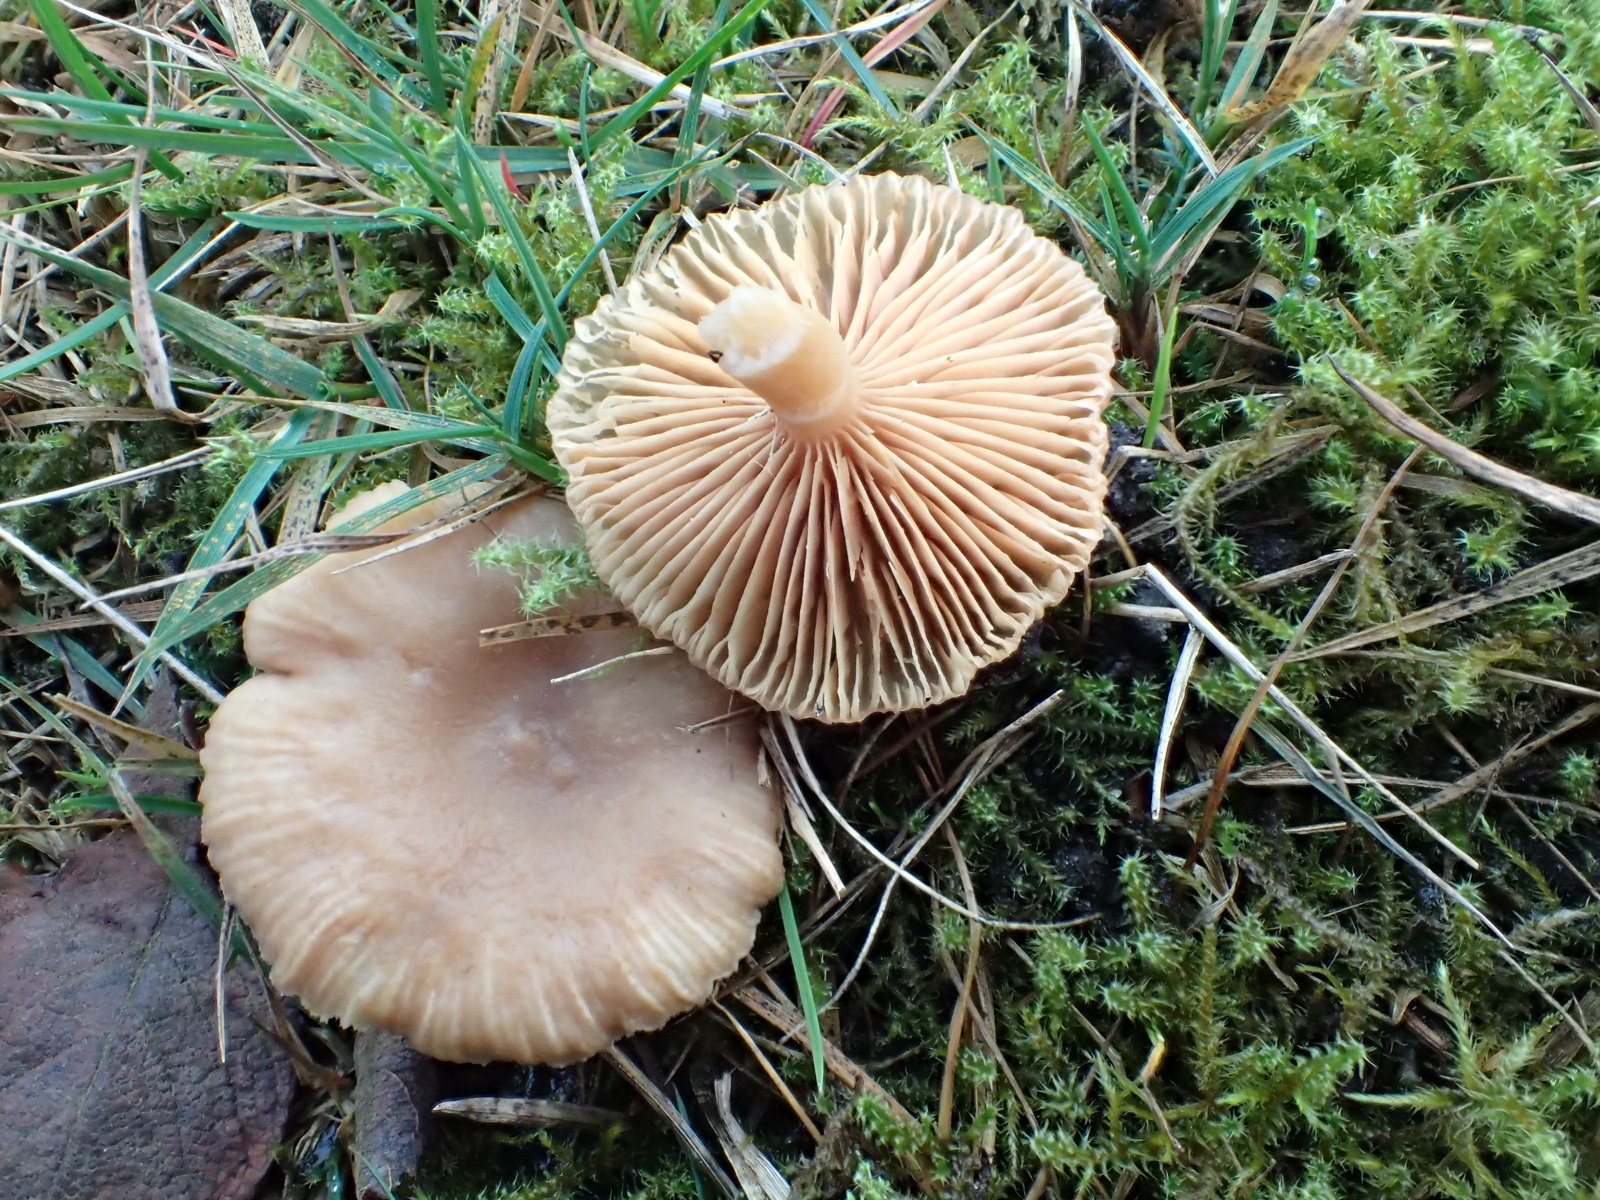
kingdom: Fungi
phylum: Basidiomycota
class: Agaricomycetes
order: Russulales
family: Russulaceae
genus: Lactarius
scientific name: Lactarius glyciosmus
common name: kokos-mælkehat
